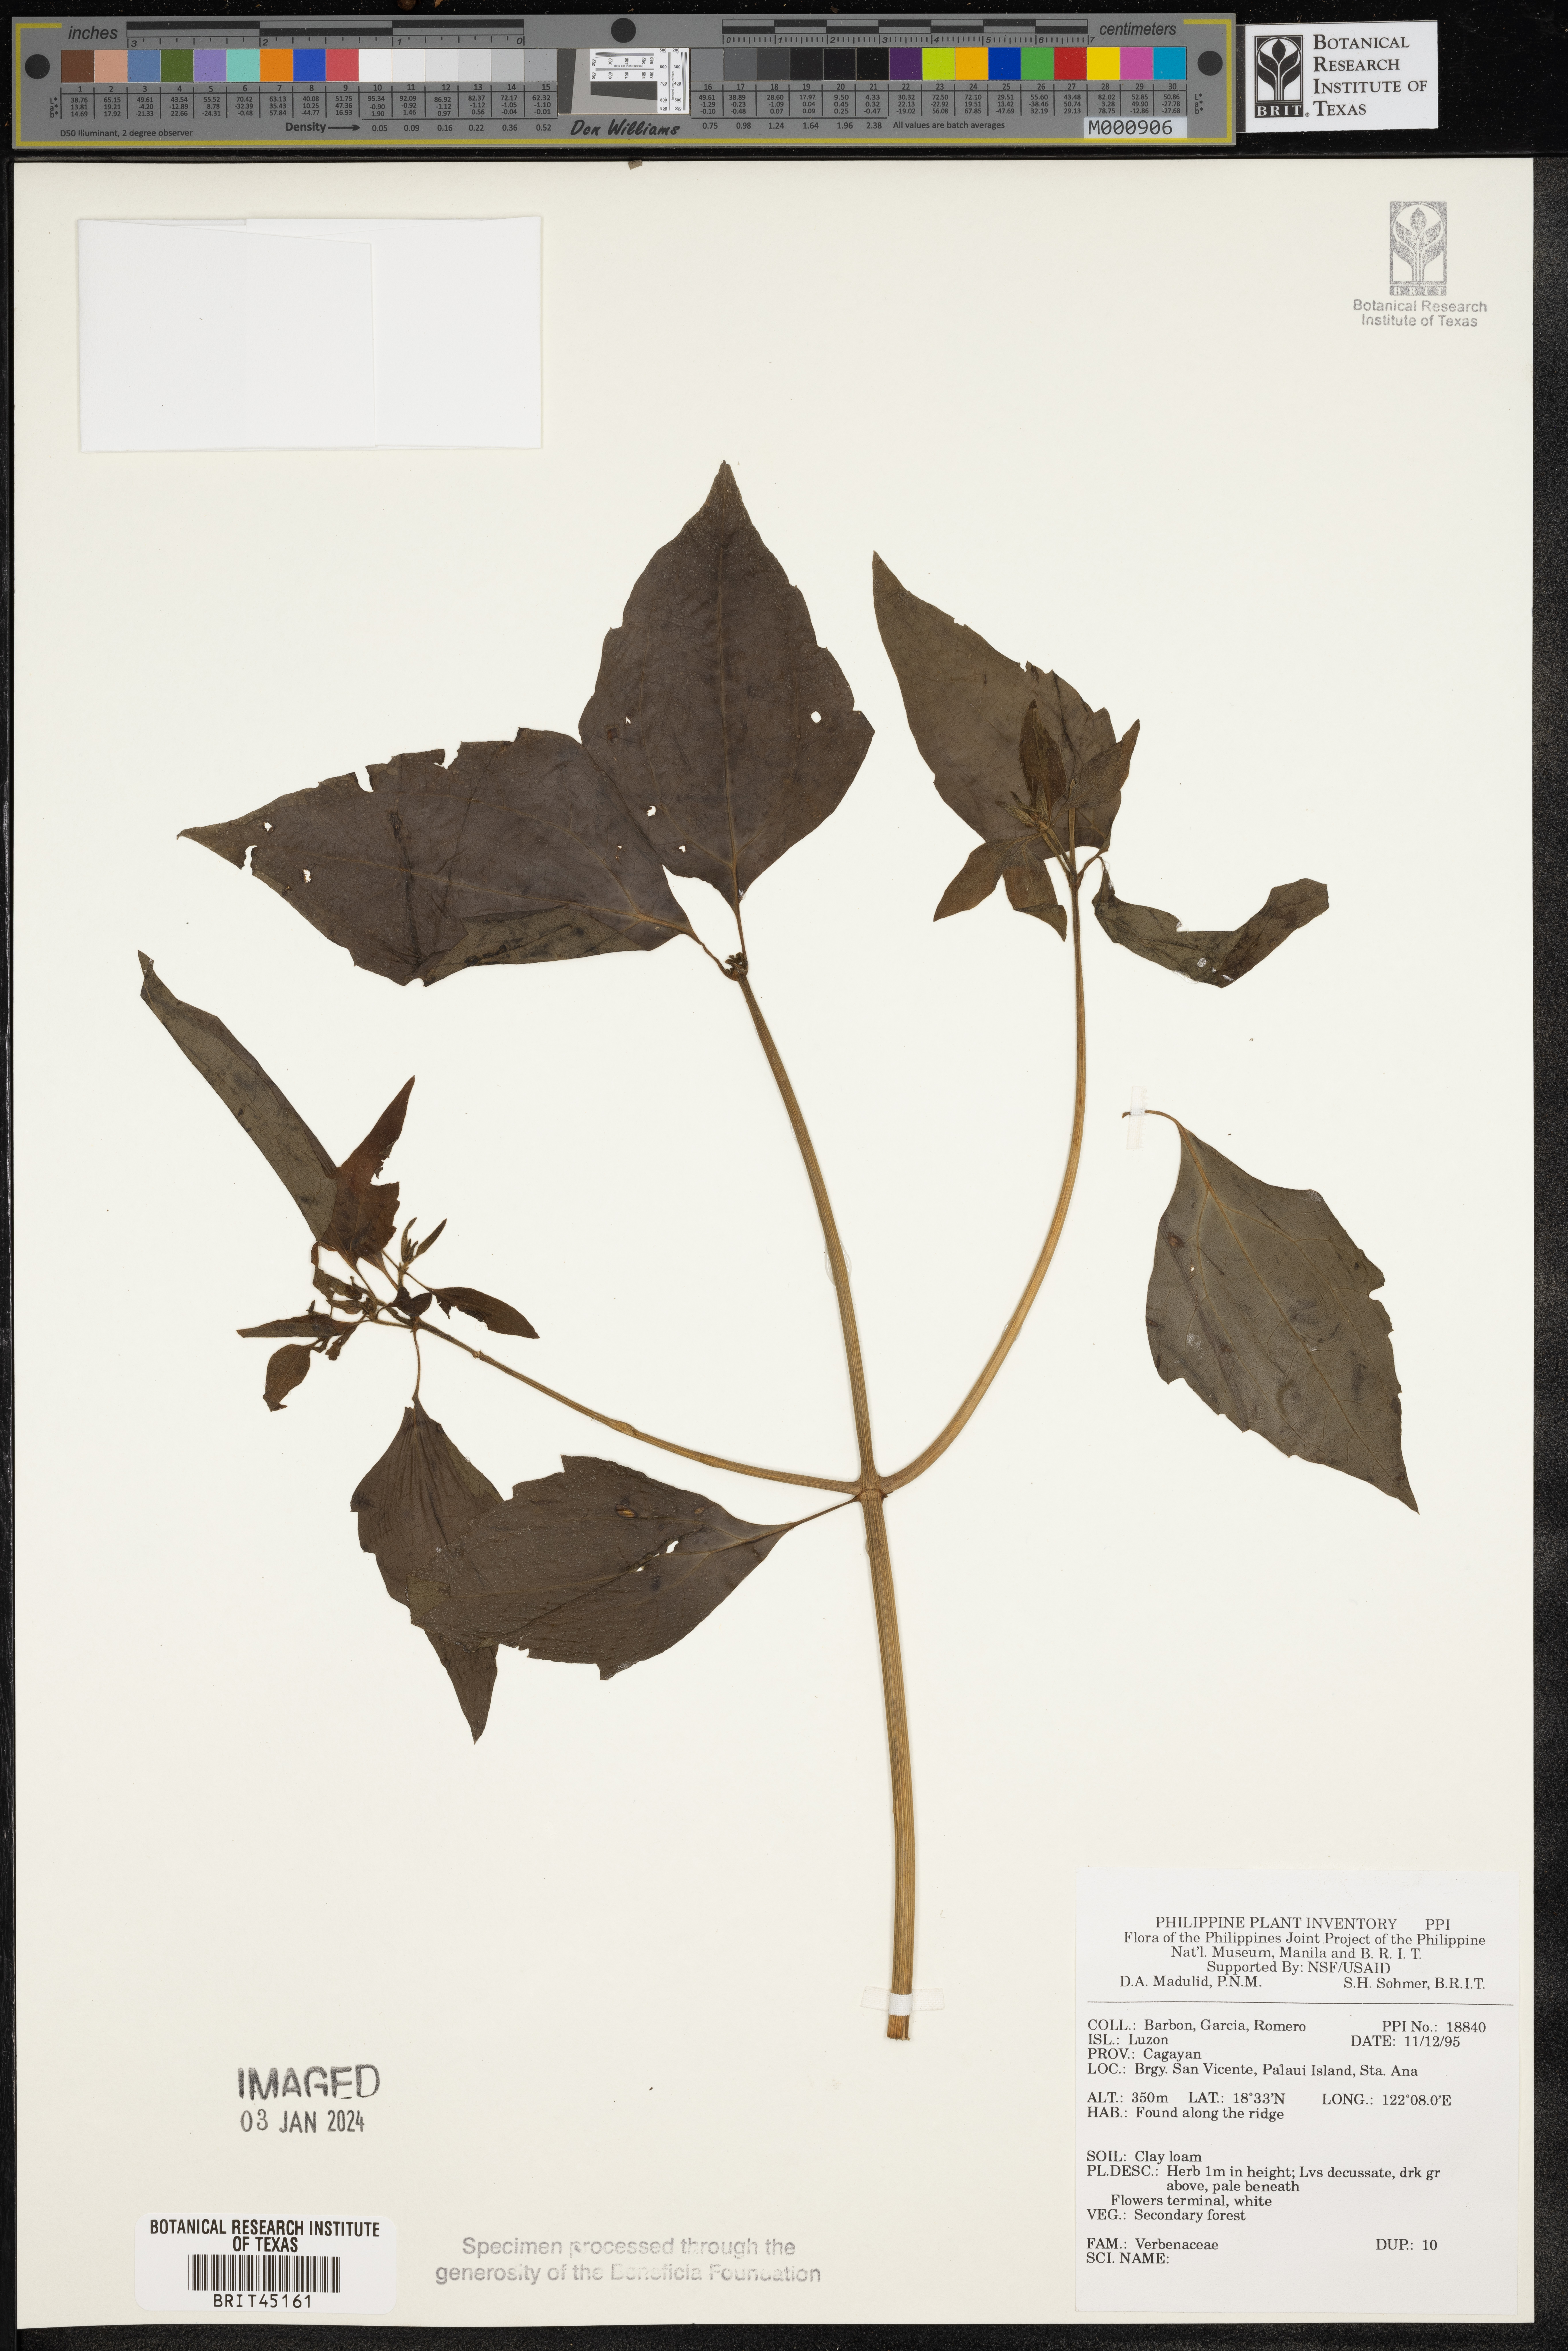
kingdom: Plantae
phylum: Tracheophyta
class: Magnoliopsida
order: Lamiales
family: Verbenaceae
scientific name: Verbenaceae
